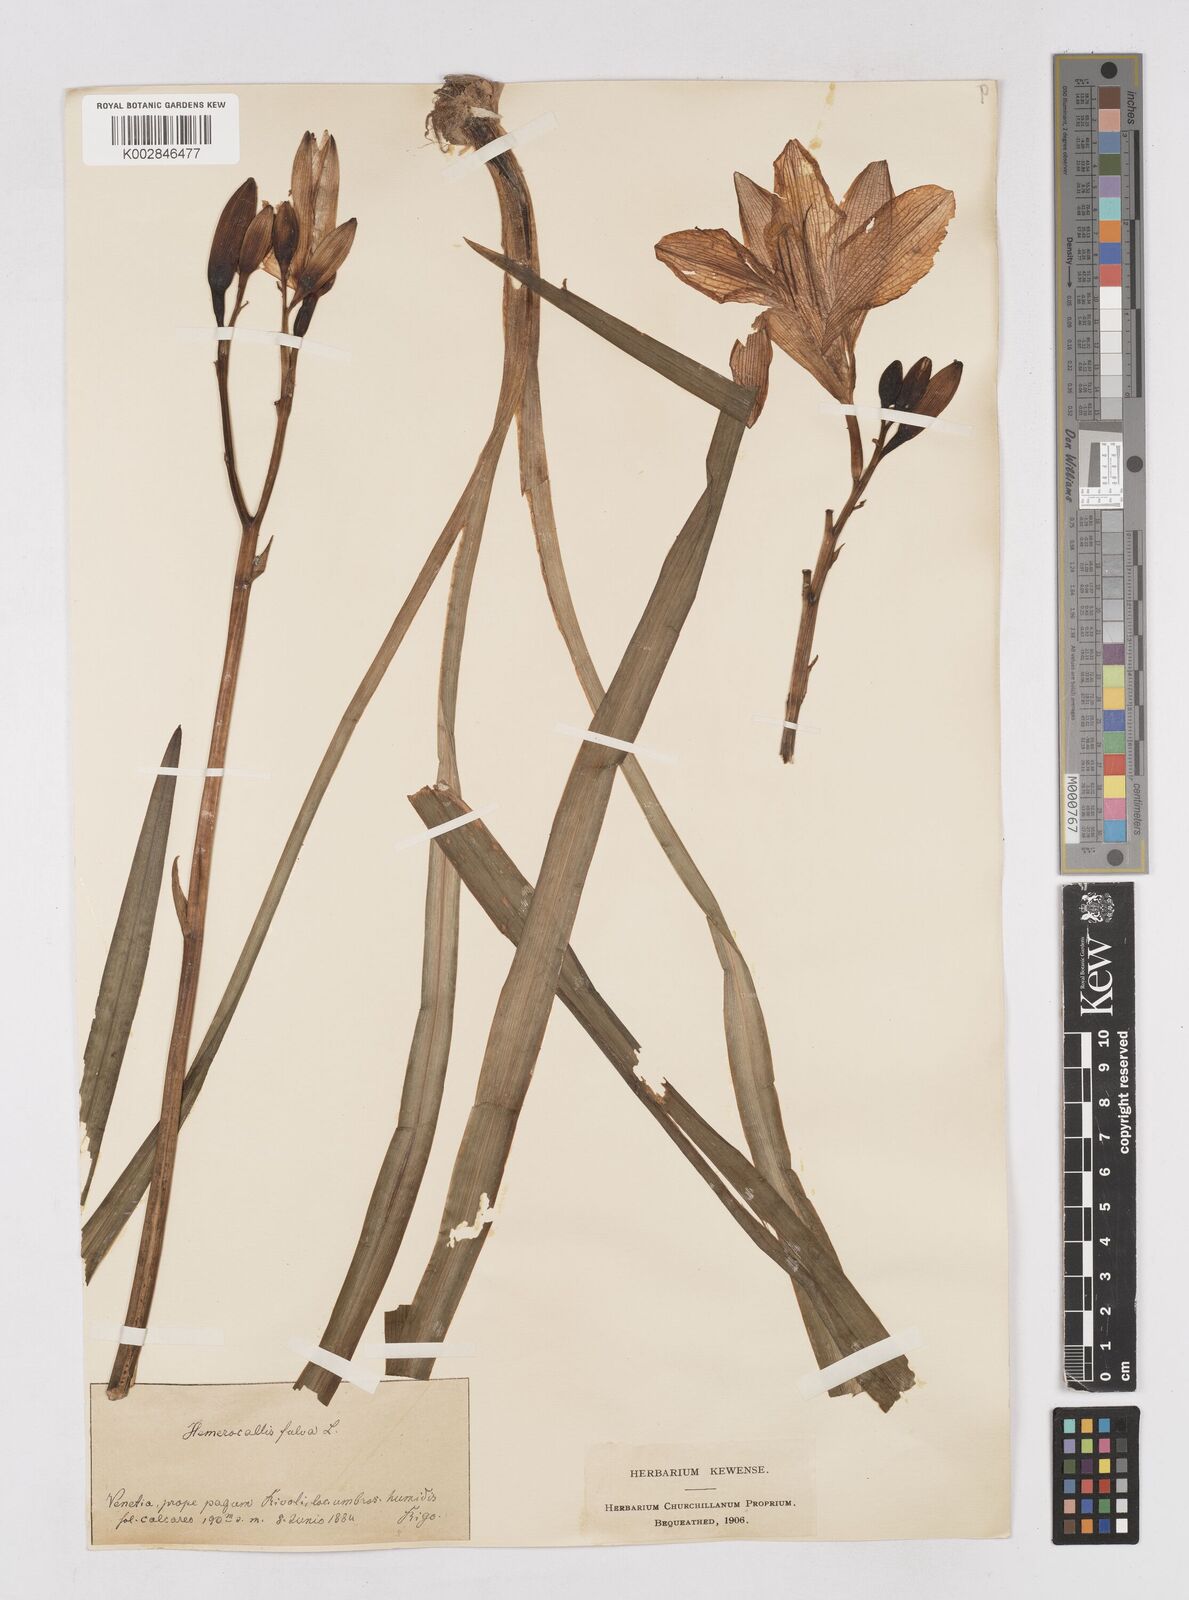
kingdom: Plantae
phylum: Tracheophyta
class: Liliopsida
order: Asparagales
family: Asphodelaceae
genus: Hemerocallis
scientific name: Hemerocallis fulva
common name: Orange day-lily
